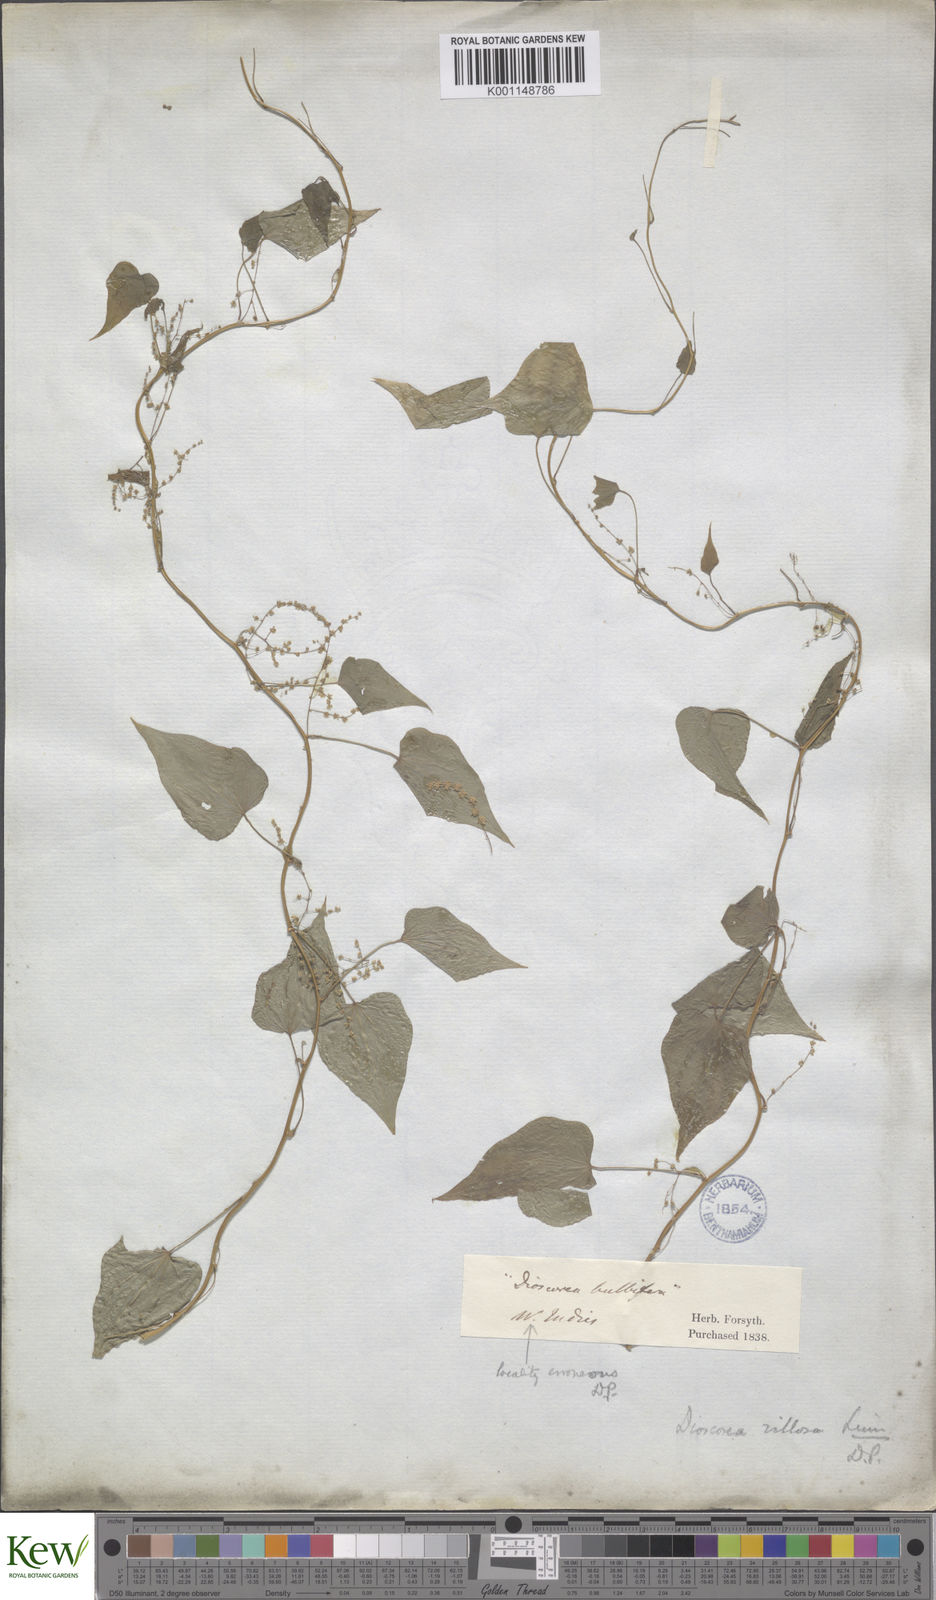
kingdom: Plantae
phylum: Tracheophyta
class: Liliopsida
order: Dioscoreales
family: Dioscoreaceae
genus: Dioscorea
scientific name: Dioscorea villosa
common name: Wild yam
